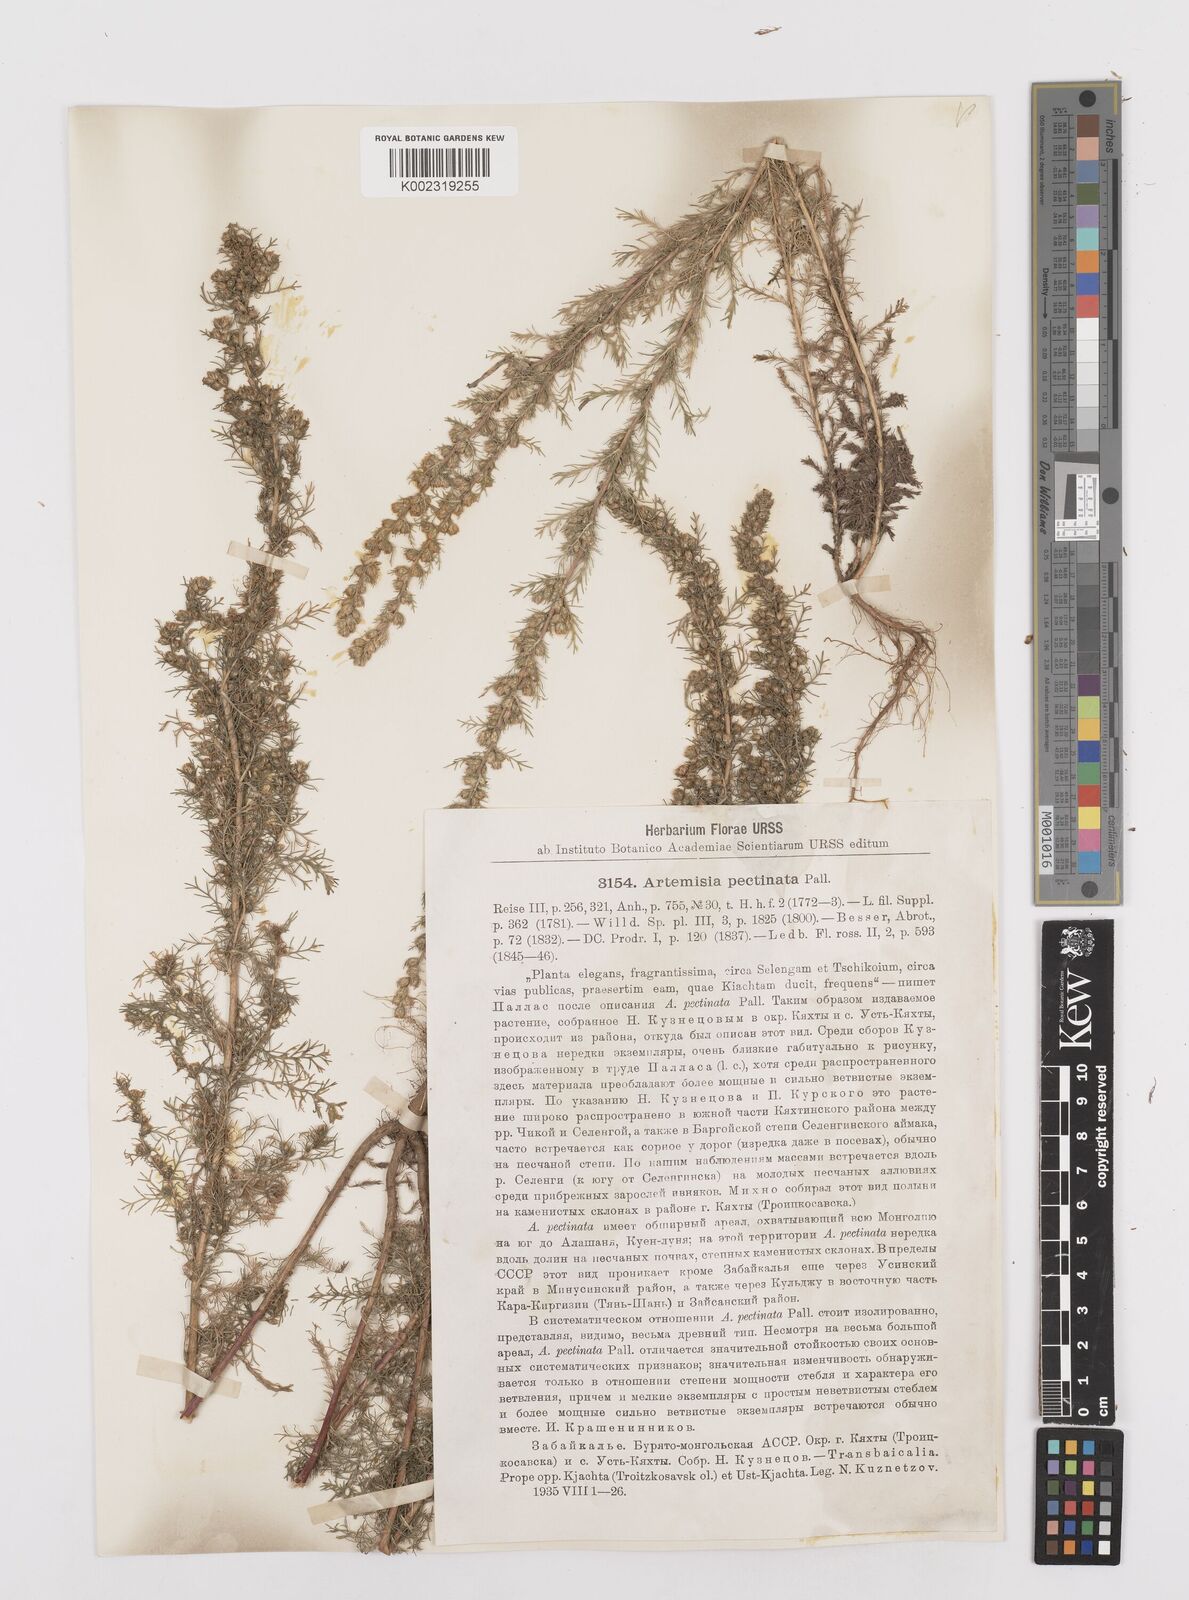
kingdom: Plantae
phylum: Tracheophyta
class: Magnoliopsida
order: Asterales
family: Asteraceae
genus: Neopallasia
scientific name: Neopallasia pectinata
